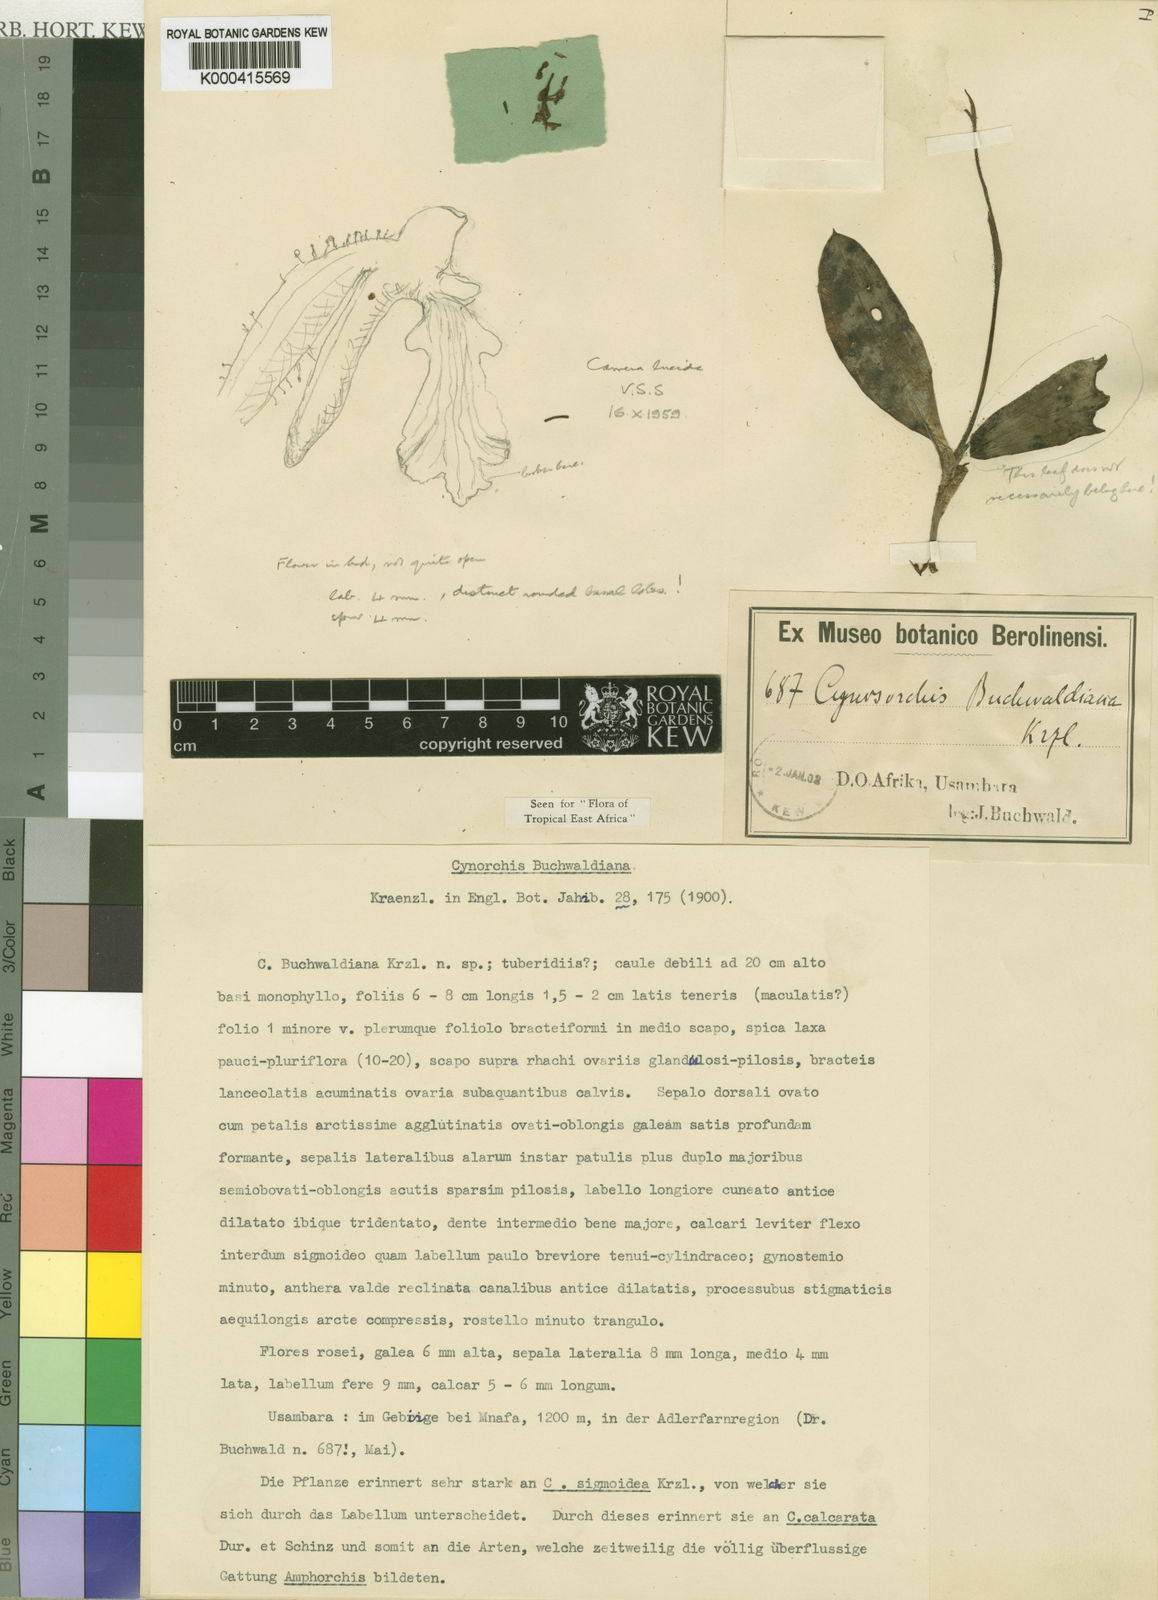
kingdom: Plantae
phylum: Tracheophyta
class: Liliopsida
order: Asparagales
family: Orchidaceae
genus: Cynorkis
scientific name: Cynorkis buchwaldiana
